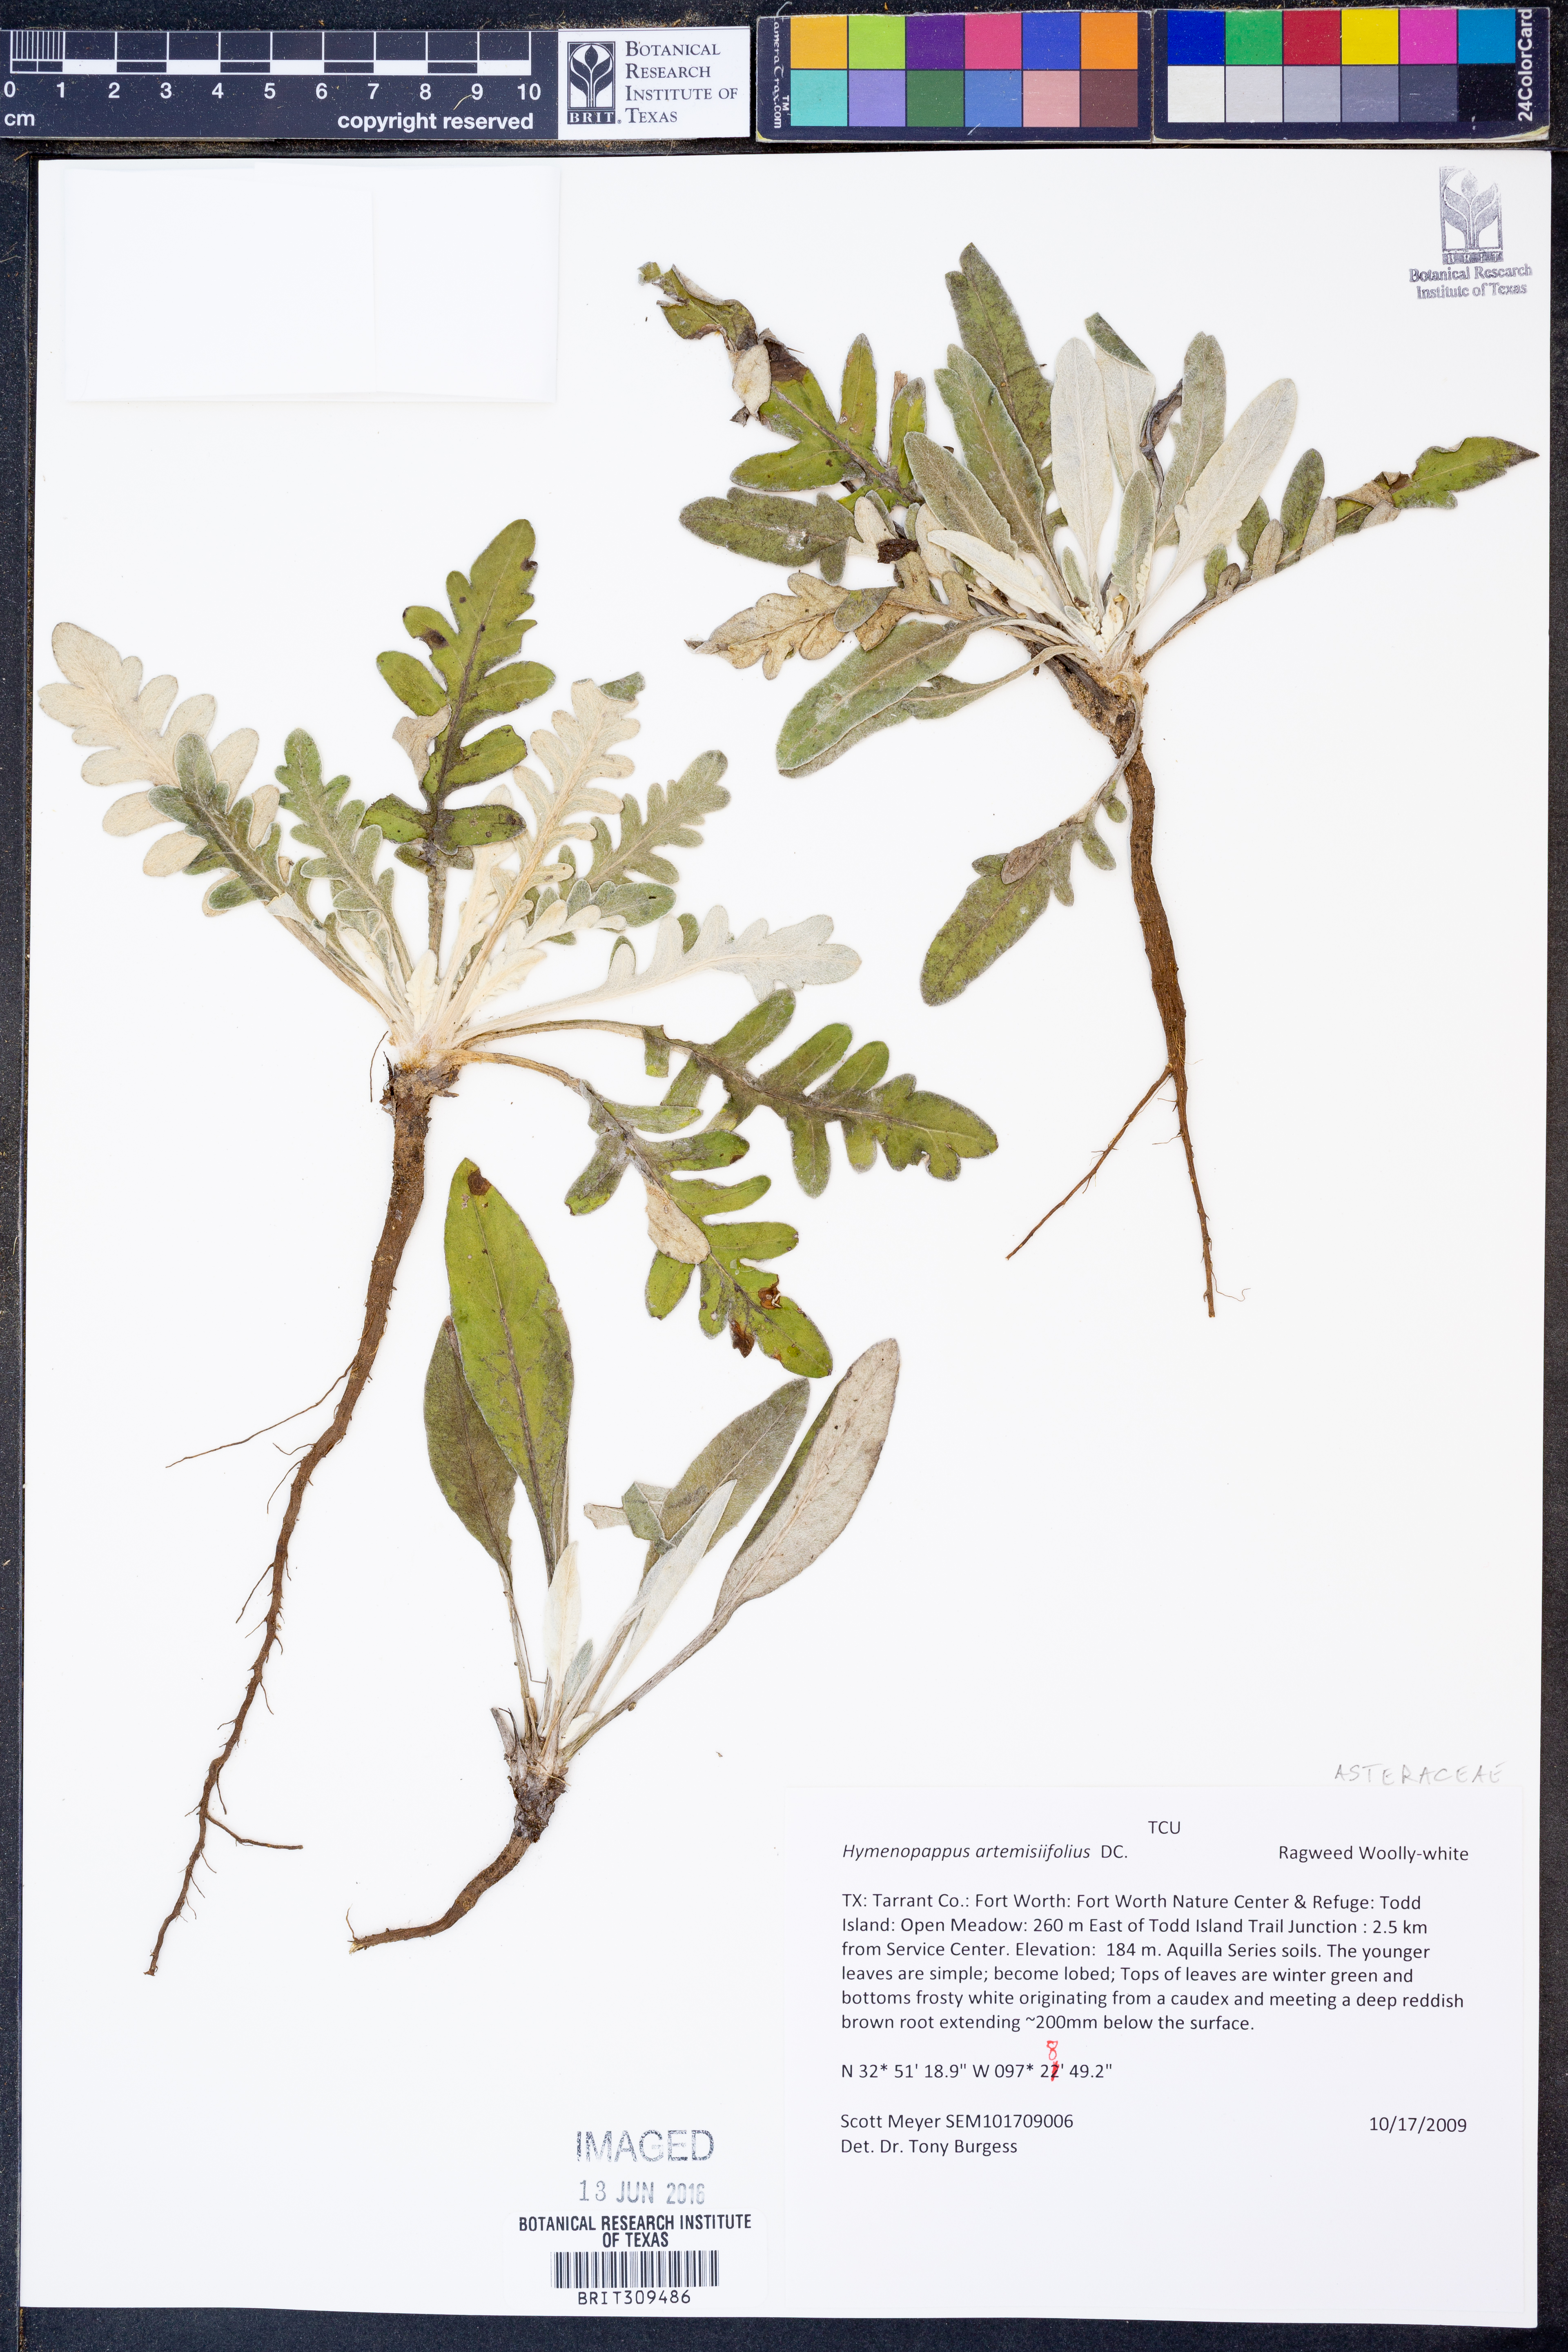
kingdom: Plantae
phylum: Tracheophyta
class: Magnoliopsida
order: Asterales
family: Asteraceae
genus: Hymenopappus
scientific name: Hymenopappus artemisiifolius
